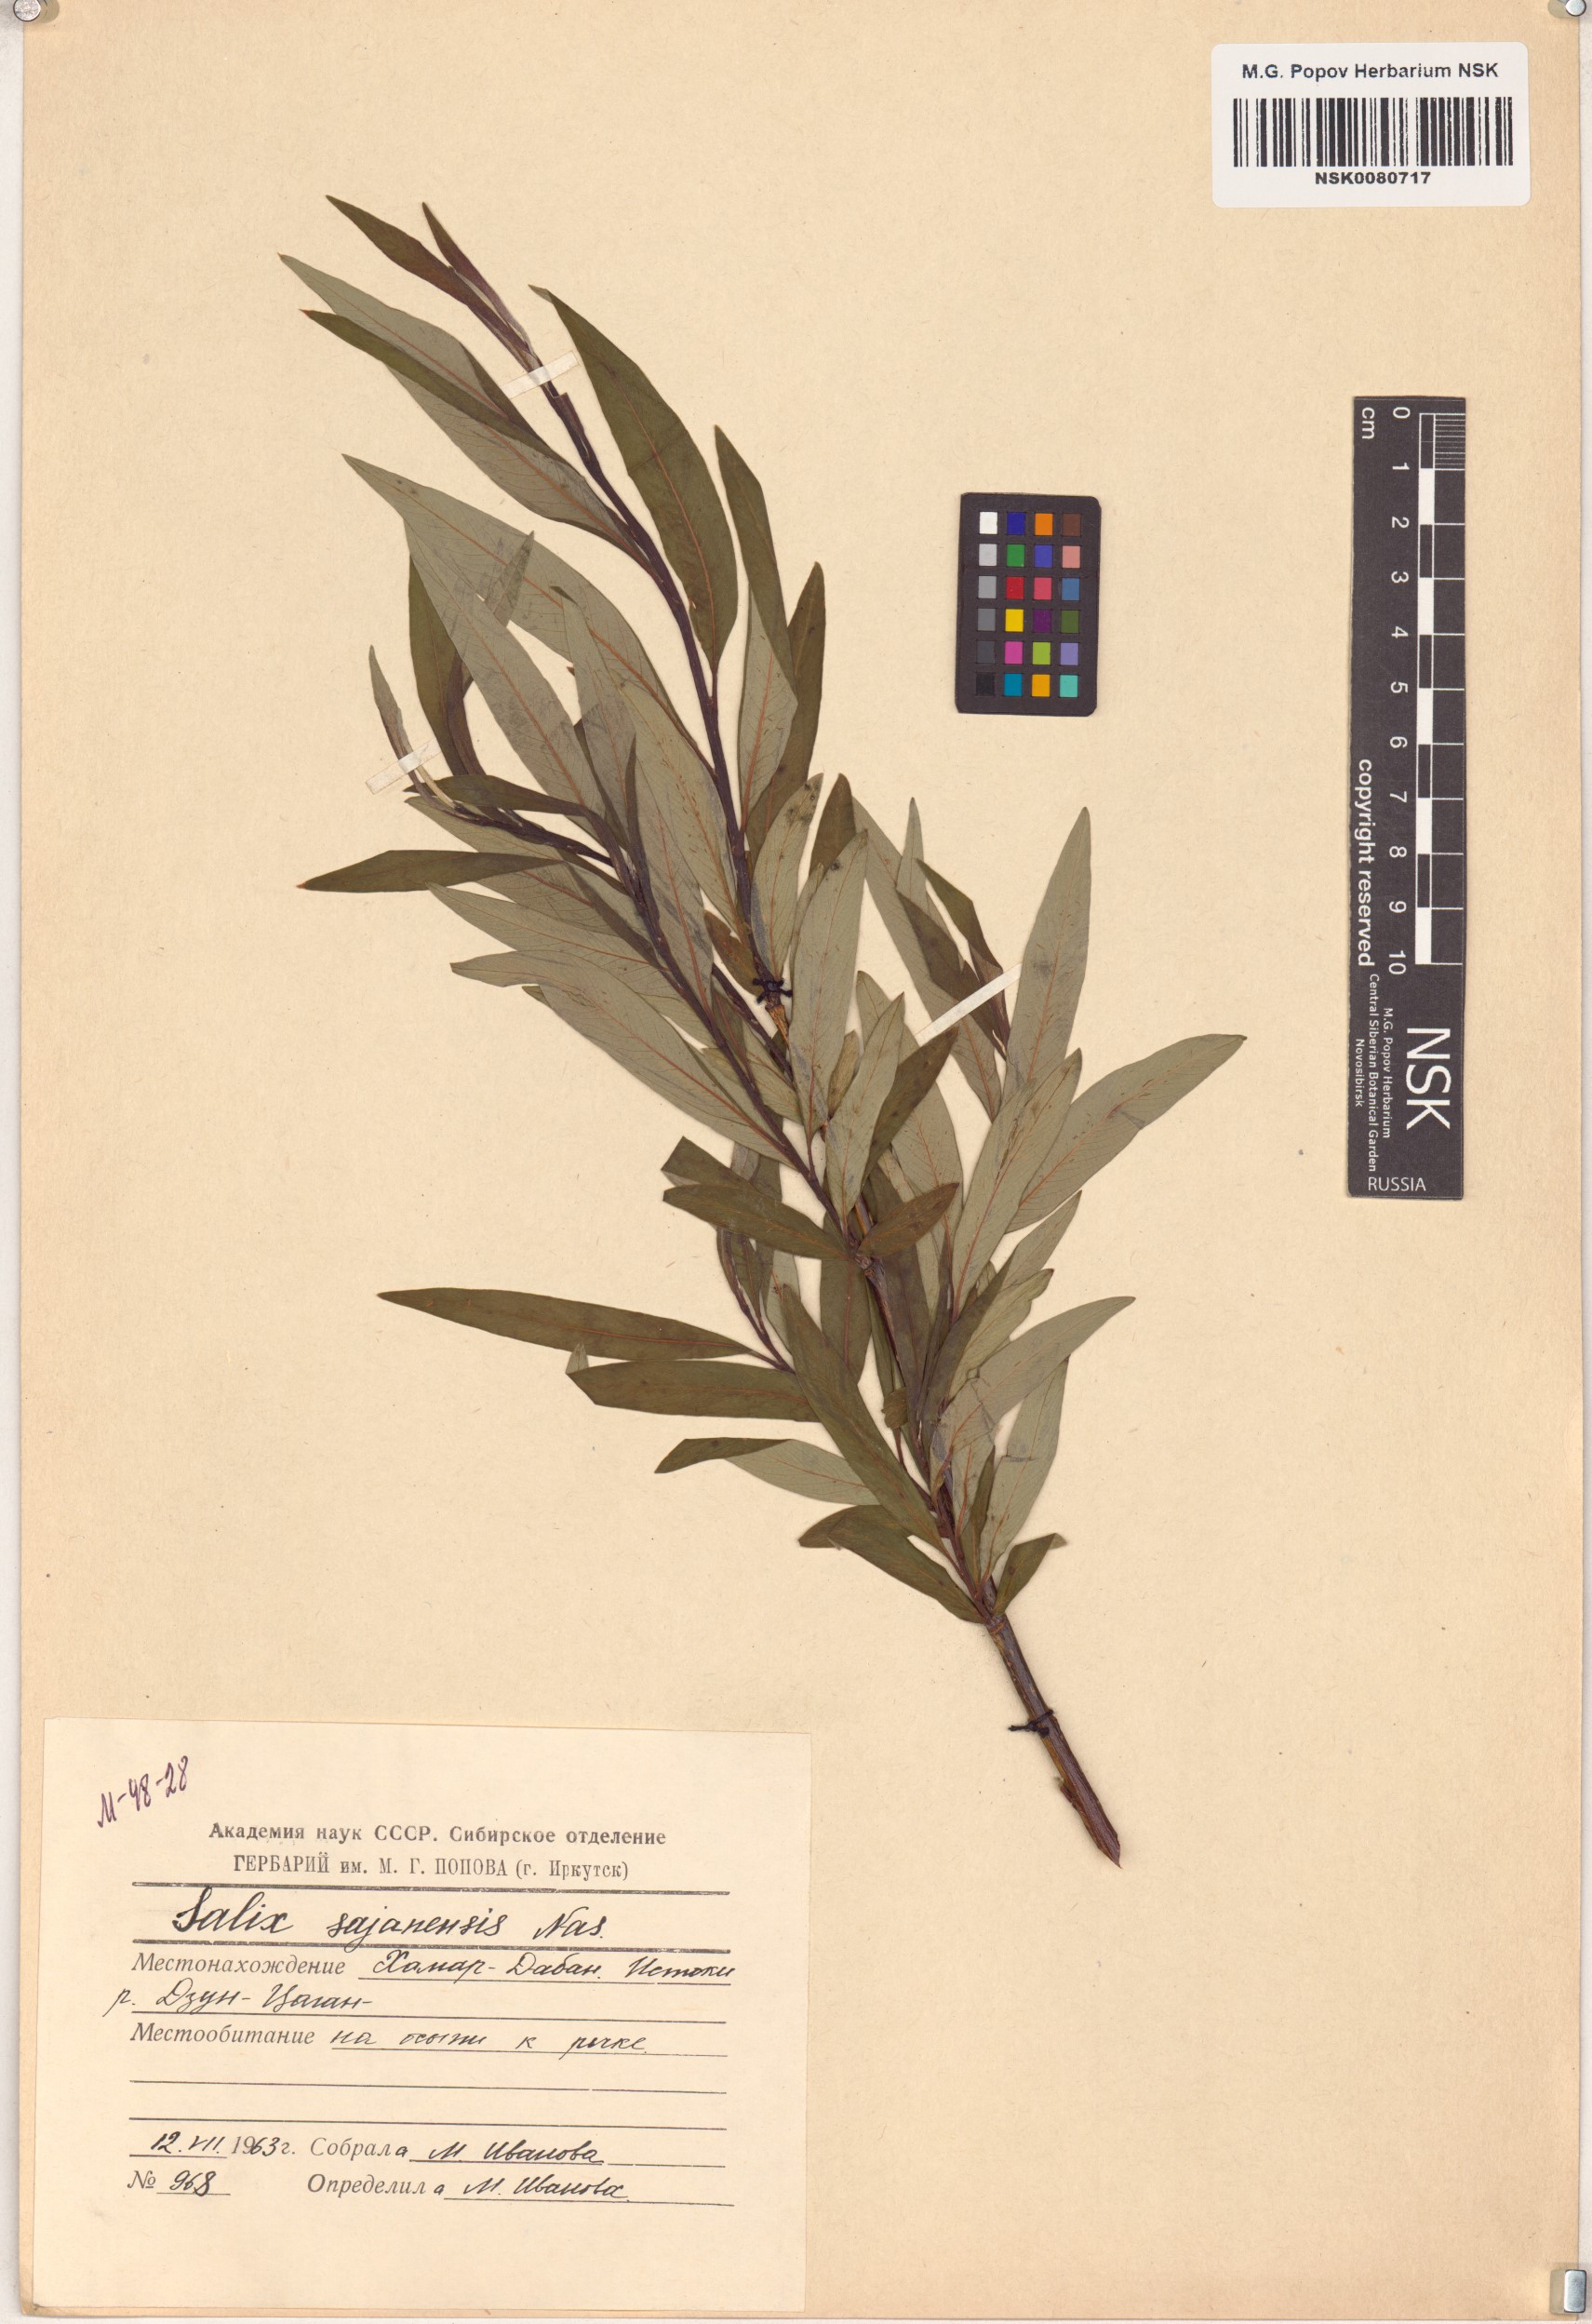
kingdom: Plantae
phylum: Tracheophyta
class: Magnoliopsida
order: Malpighiales
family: Salicaceae
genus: Salix
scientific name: Salix sajanensis
